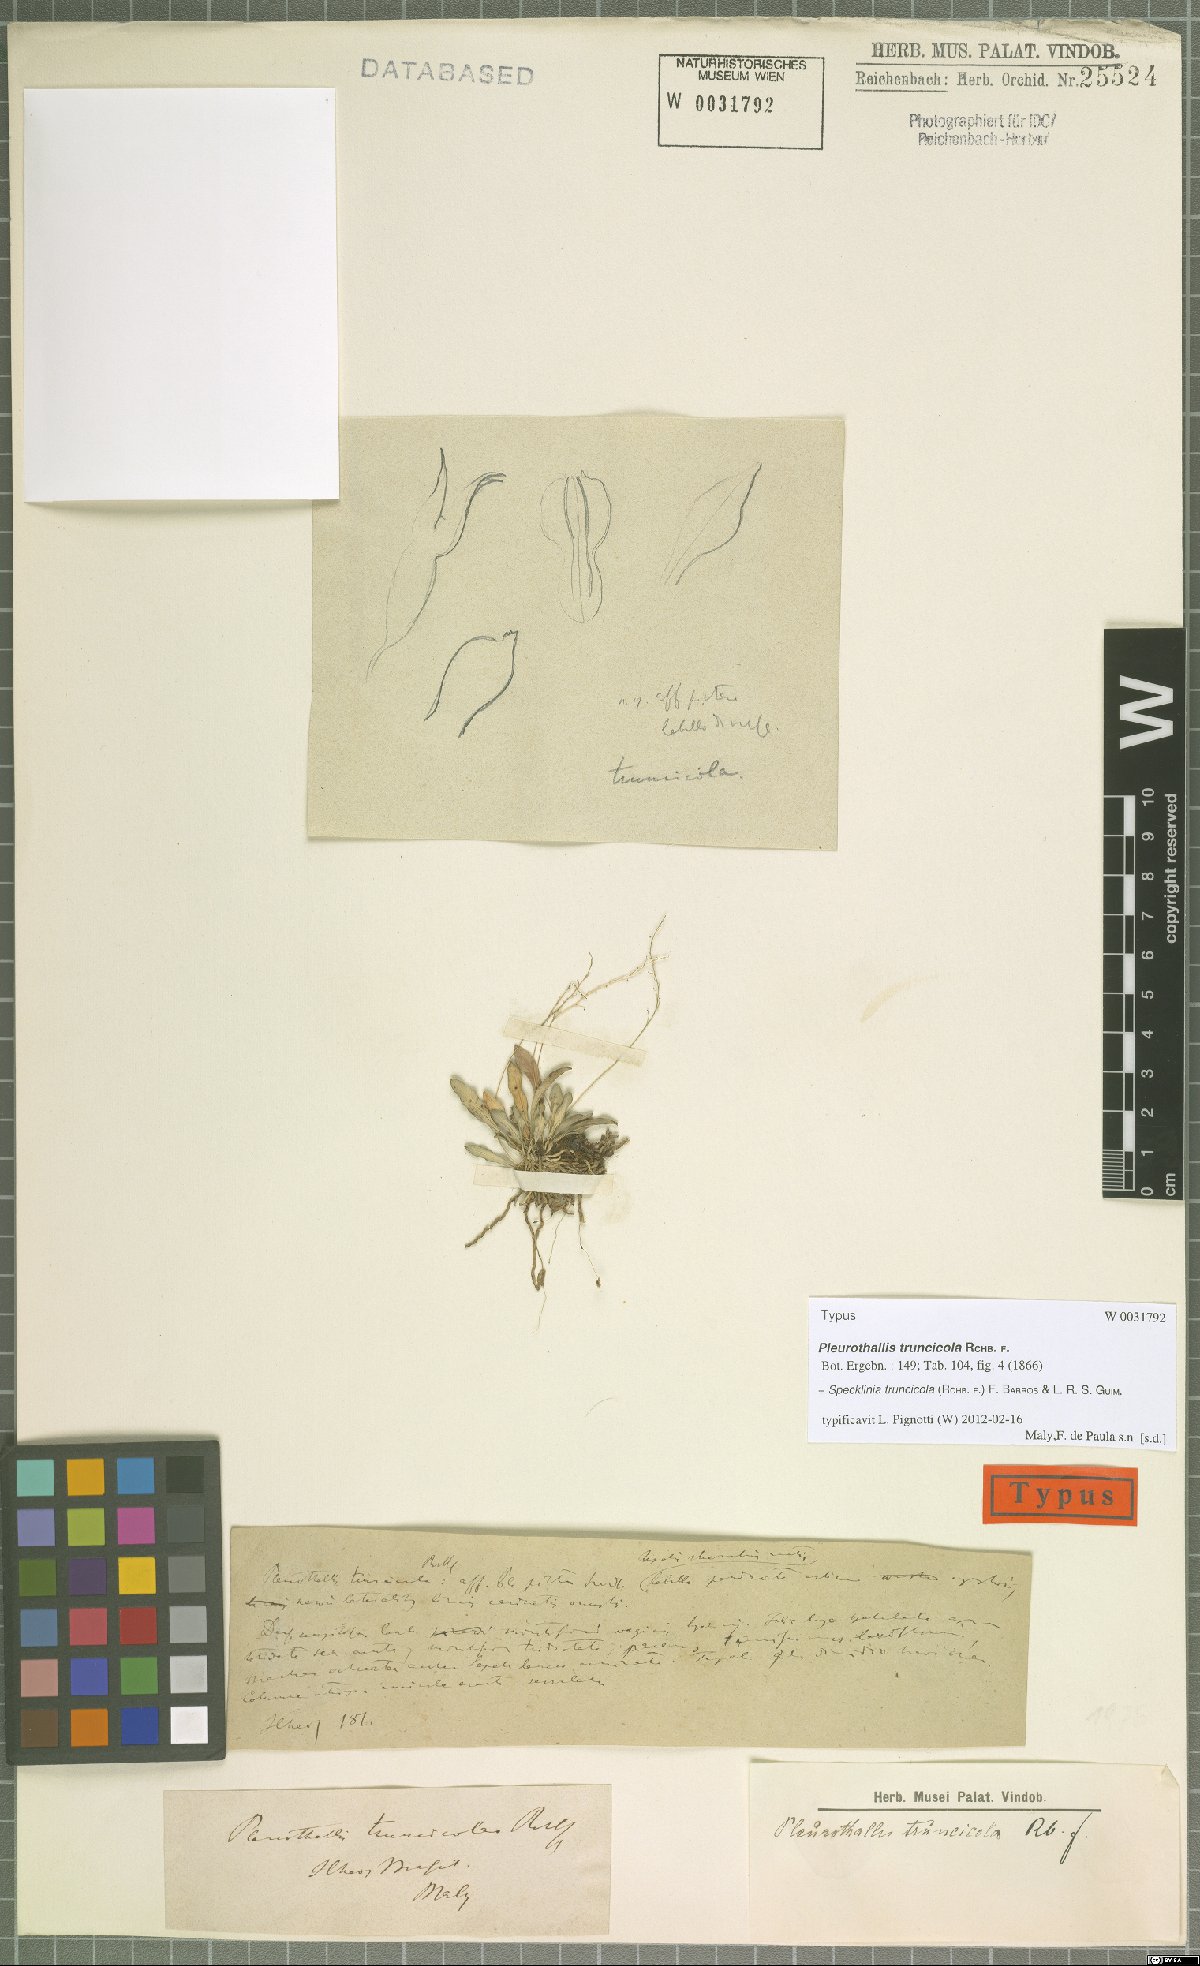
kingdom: Plantae
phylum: Tracheophyta
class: Liliopsida
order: Asparagales
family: Orchidaceae
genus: Pabstiella
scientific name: Pabstiella truncicola
